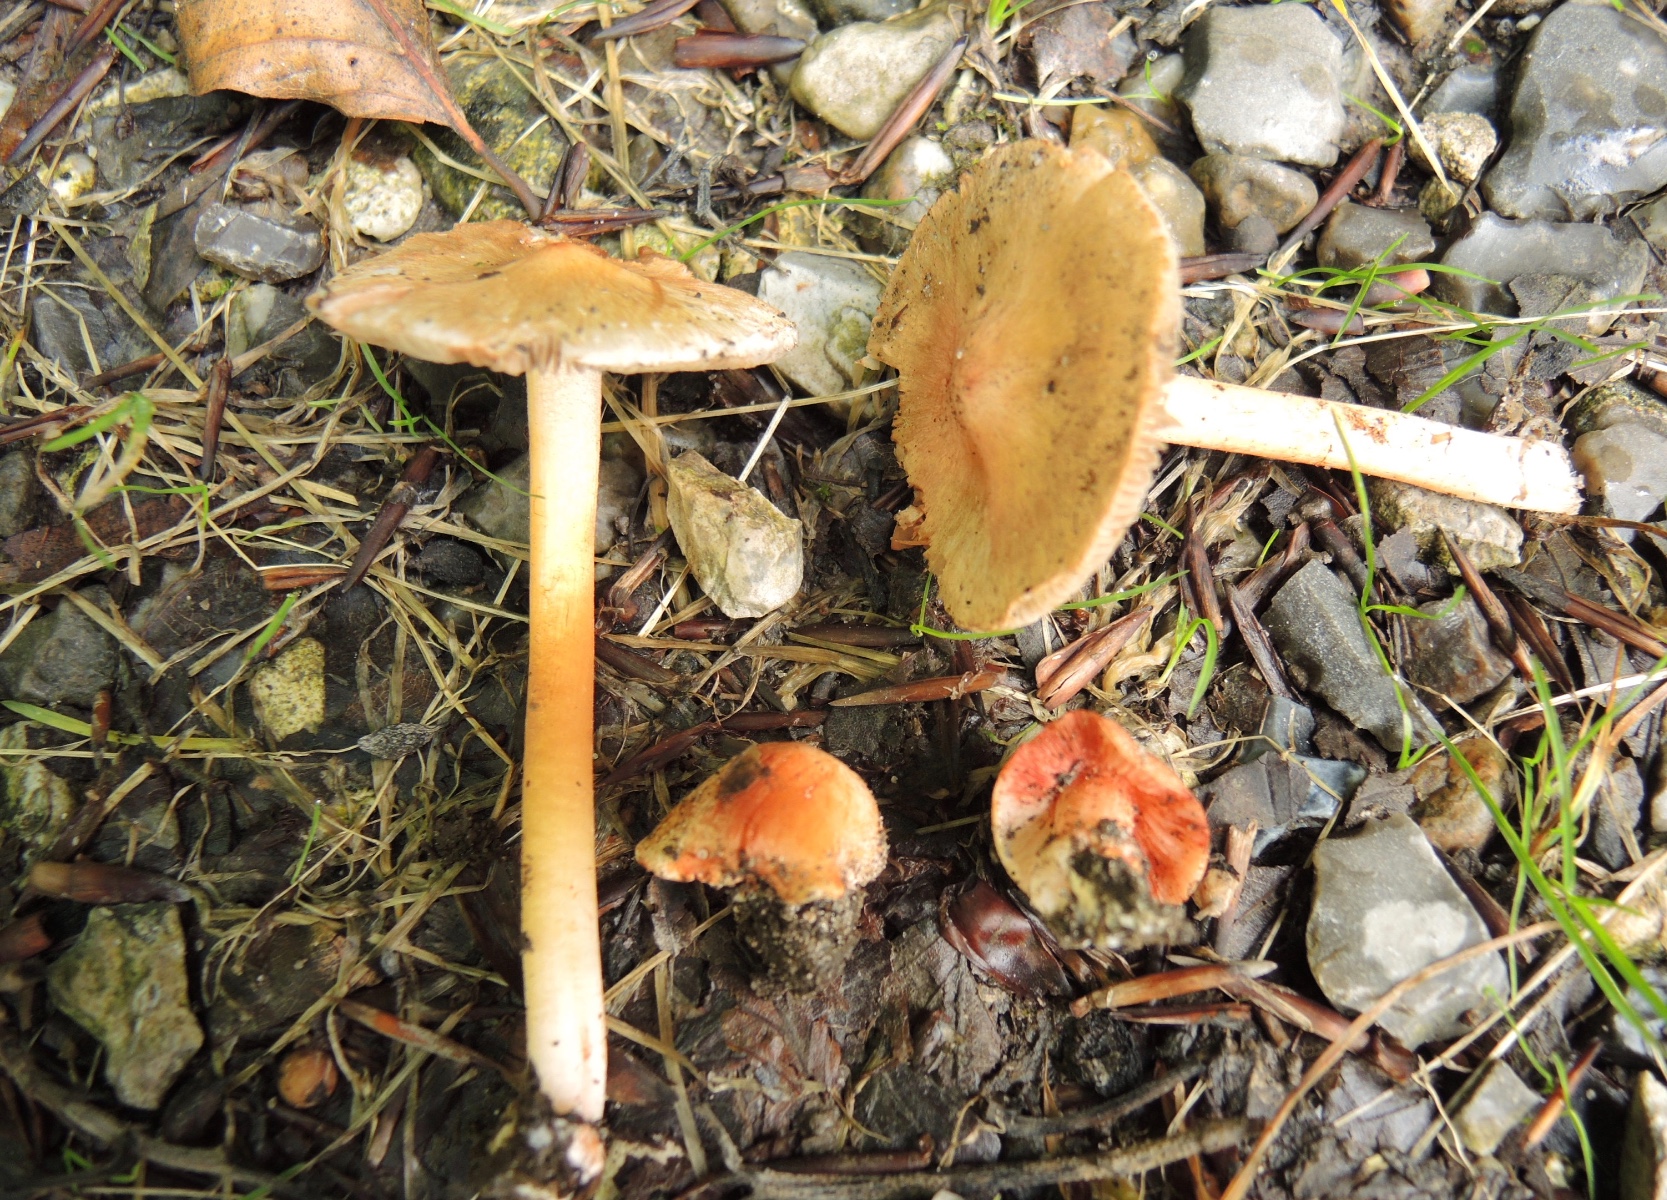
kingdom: Fungi
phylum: Basidiomycota
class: Agaricomycetes
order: Agaricales
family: Inocybaceae
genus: Inocybe
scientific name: Inocybe godeyi
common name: orangerødmende trævlhat
